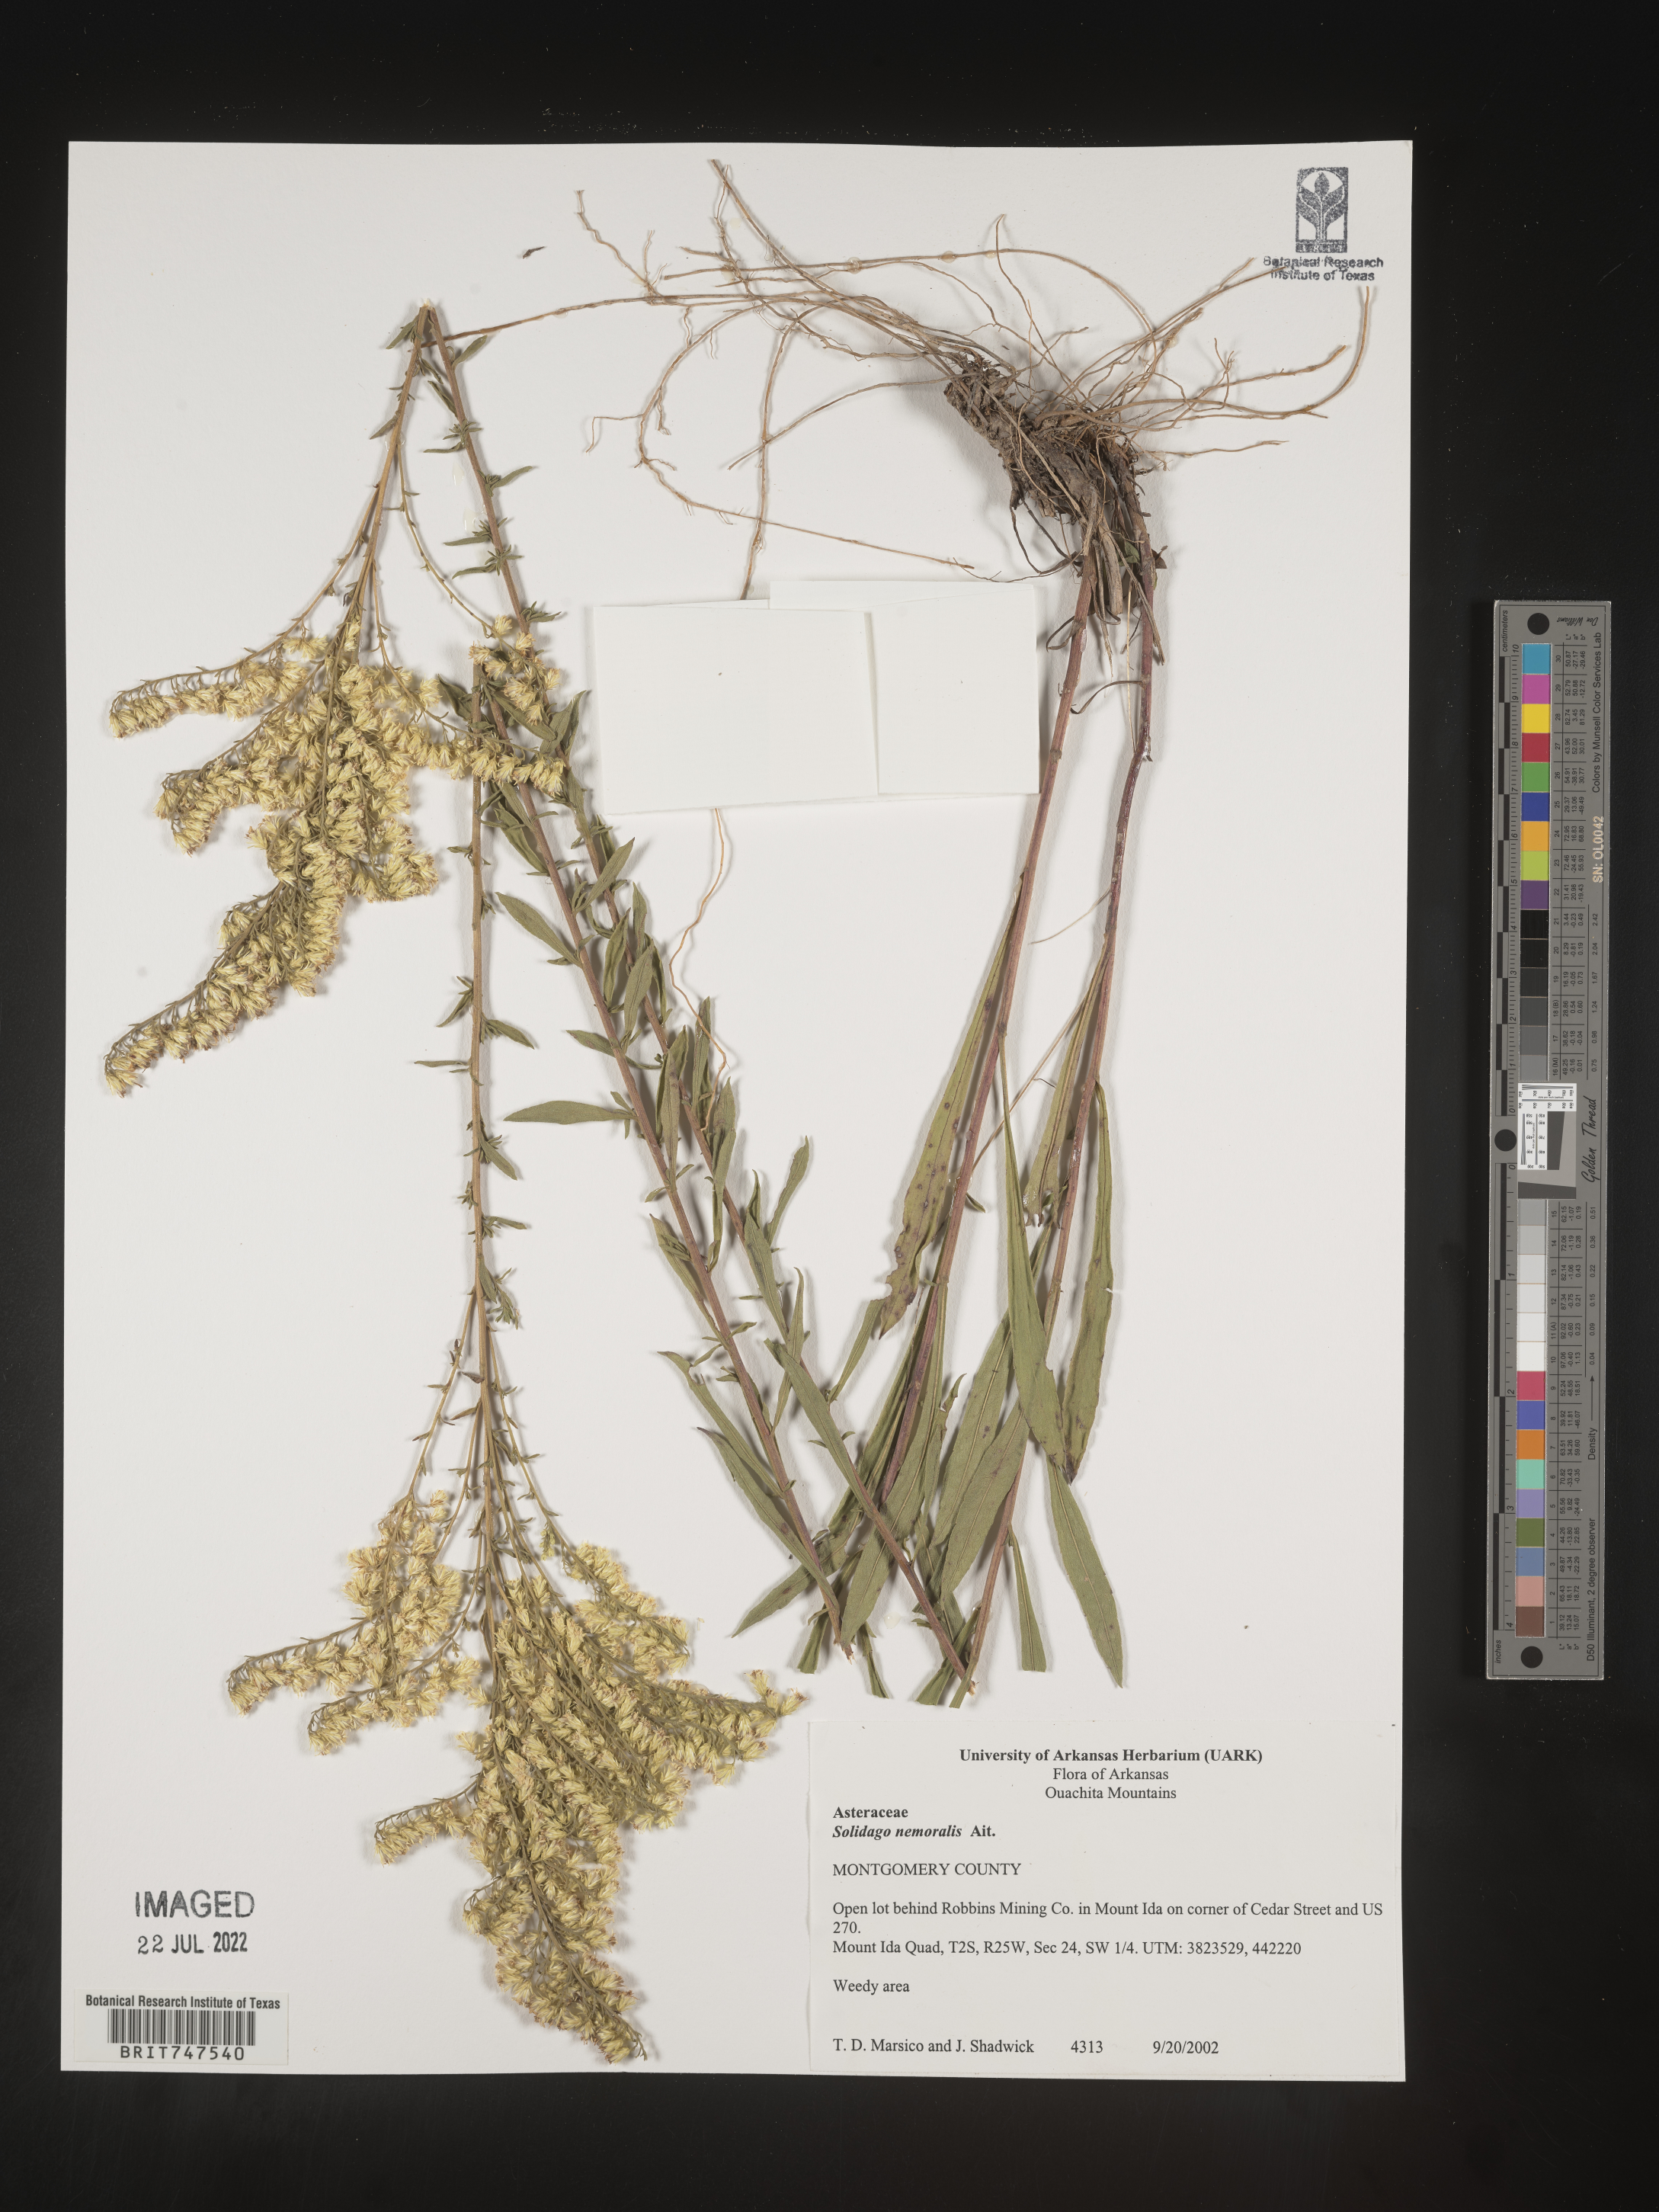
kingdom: Plantae
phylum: Tracheophyta
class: Magnoliopsida
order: Asterales
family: Asteraceae
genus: Solidago
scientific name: Solidago nemoralis
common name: Grey goldenrod
